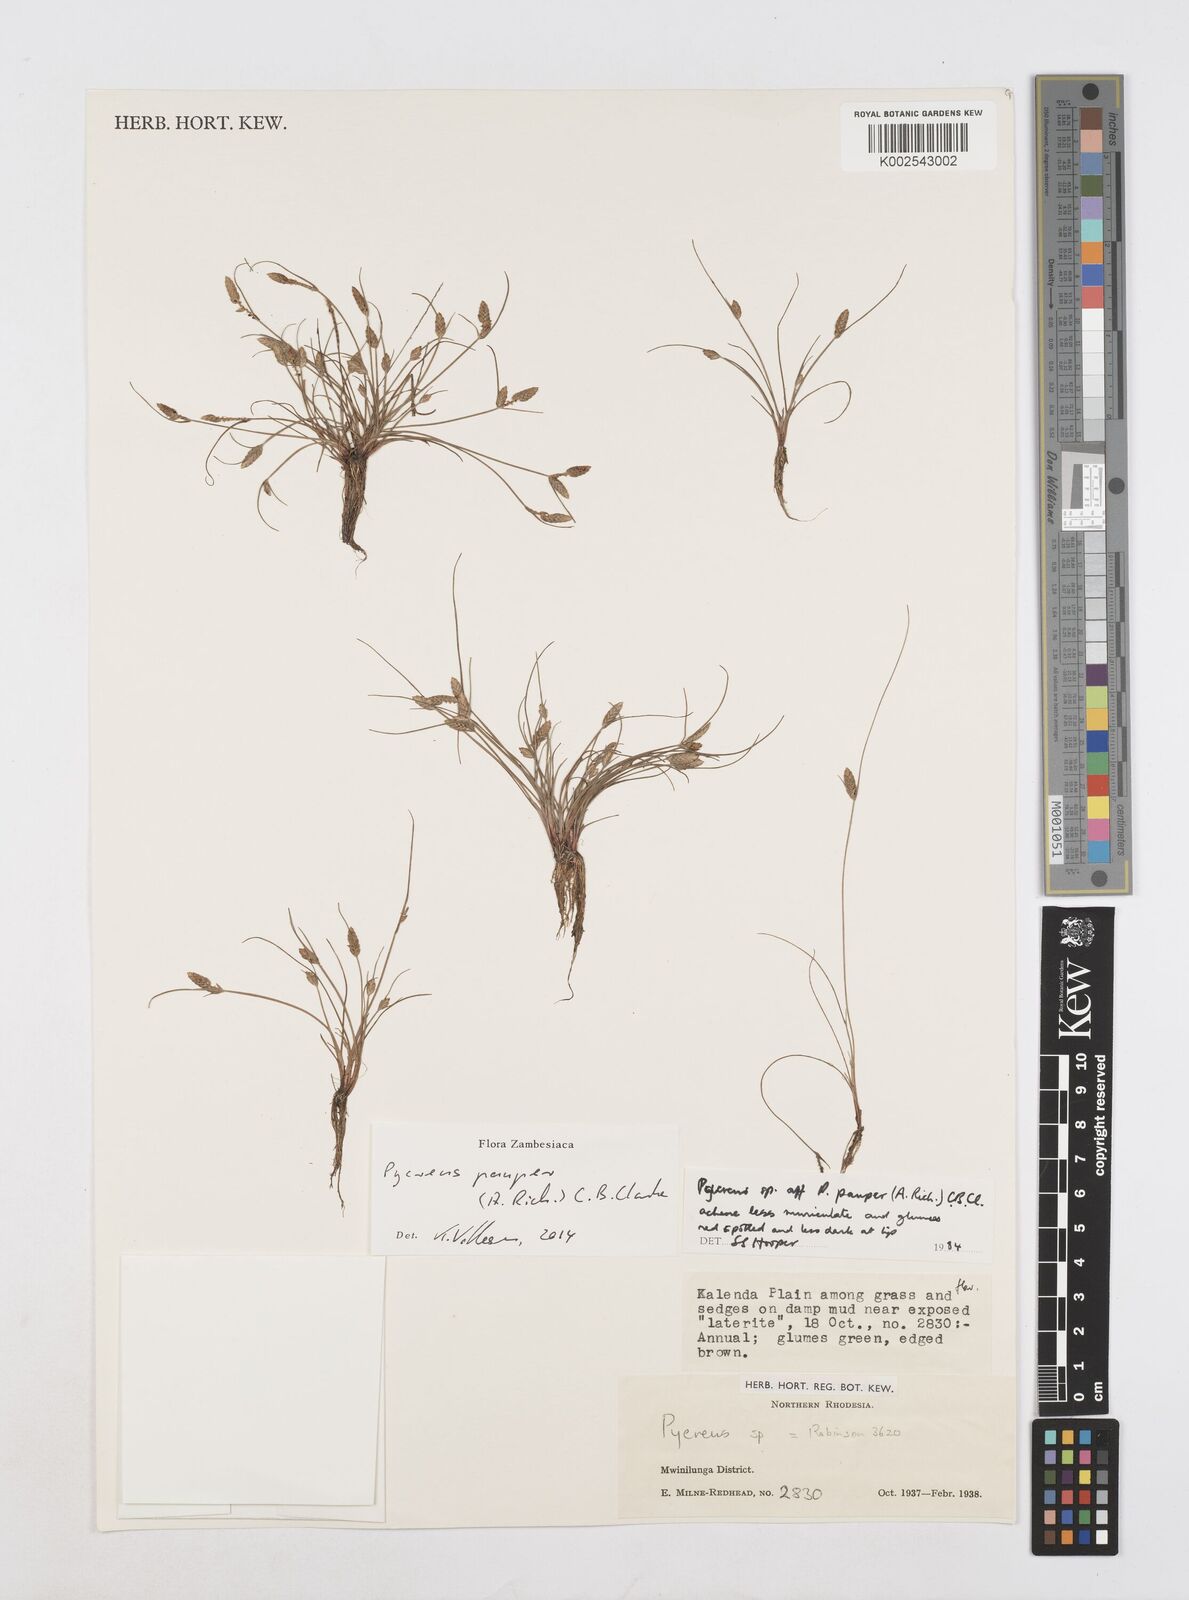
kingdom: Plantae
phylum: Tracheophyta
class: Liliopsida
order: Poales
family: Cyperaceae
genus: Cyperus
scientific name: Cyperus pauper
